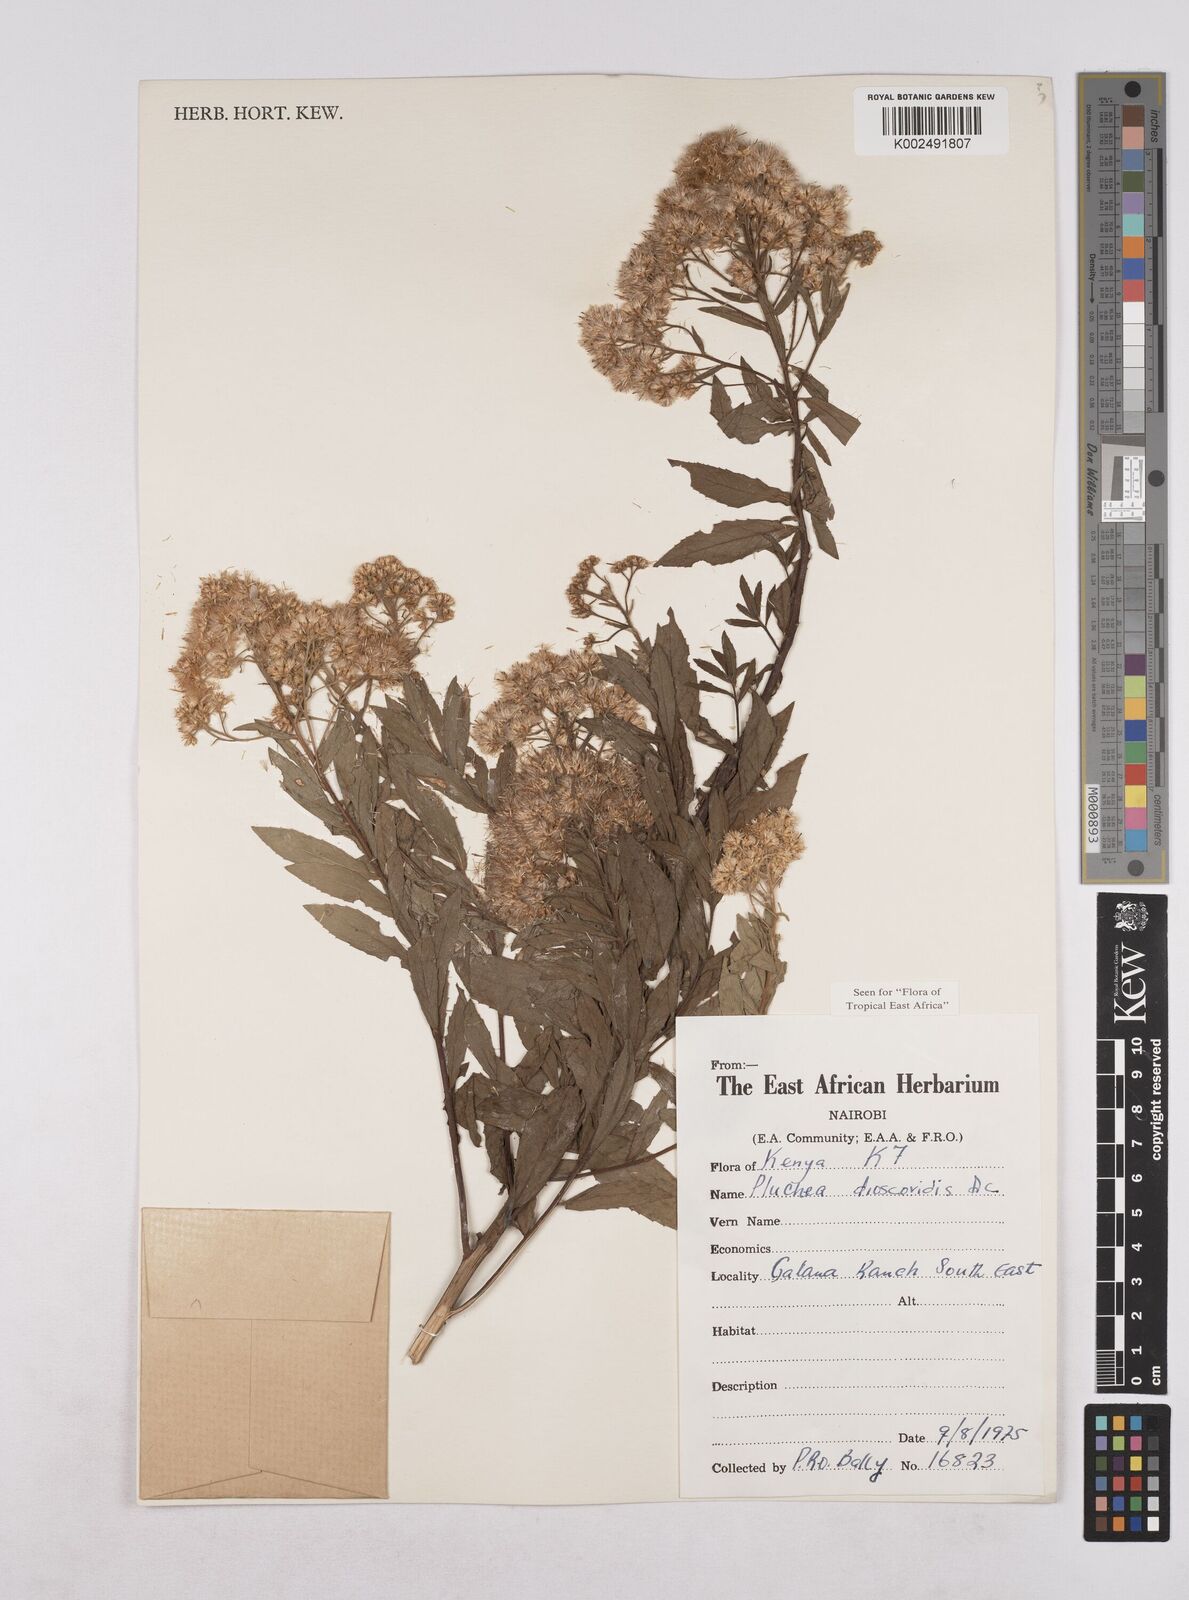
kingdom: Plantae
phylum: Tracheophyta
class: Magnoliopsida
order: Asterales
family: Asteraceae
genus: Pluchea
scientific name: Pluchea dioscoridis
